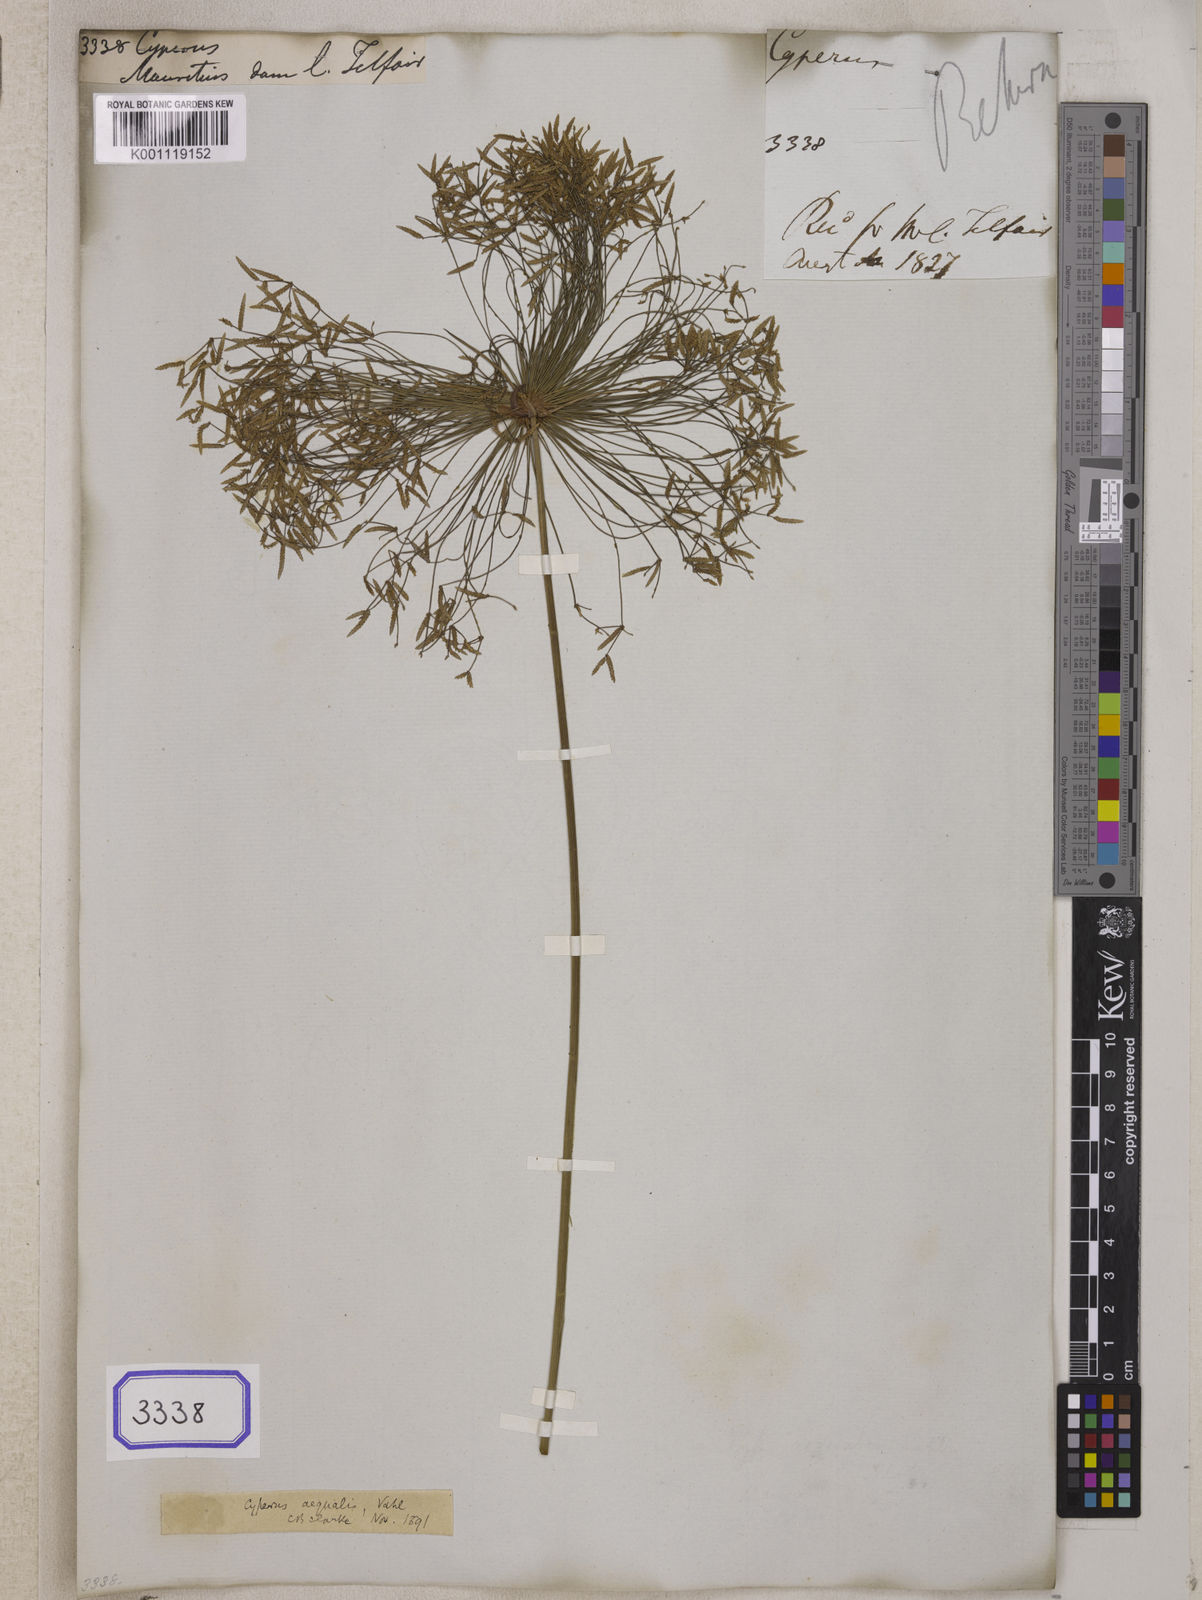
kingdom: Plantae
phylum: Tracheophyta
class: Liliopsida
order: Poales
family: Cyperaceae
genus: Cyperus
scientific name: Cyperus
